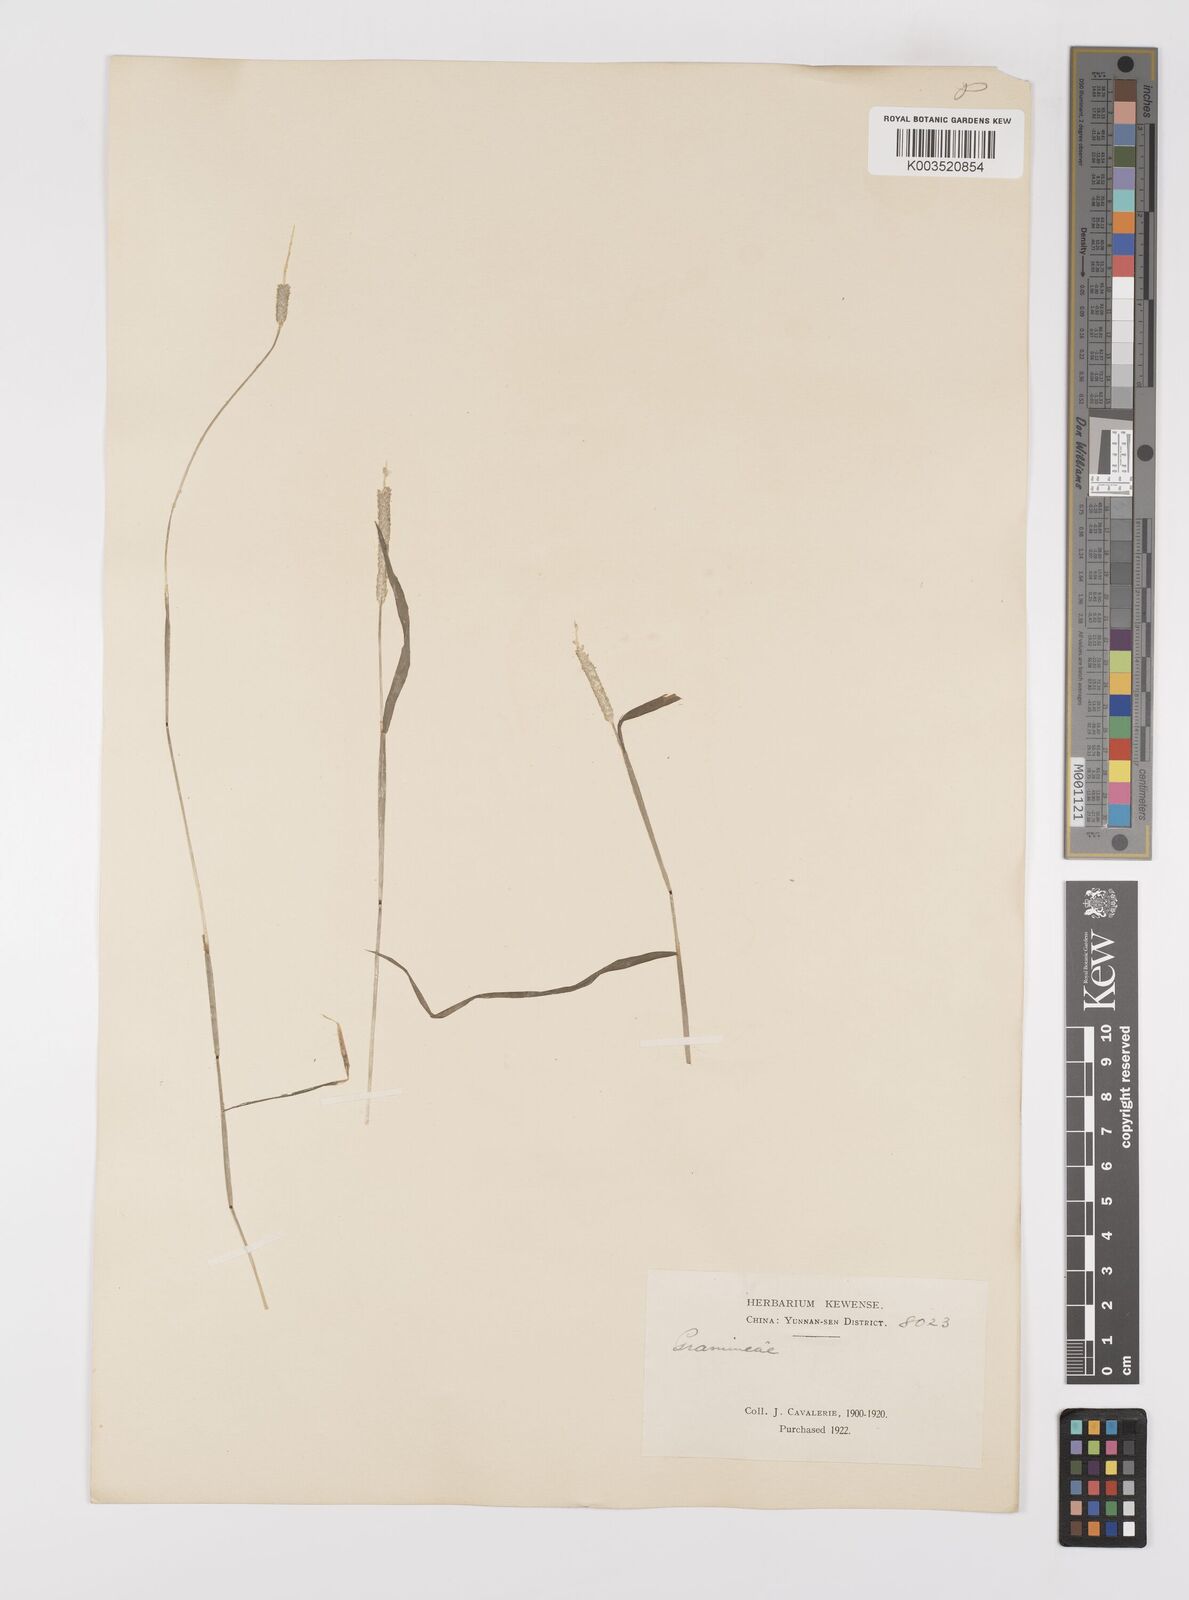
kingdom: Plantae
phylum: Tracheophyta
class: Liliopsida
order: Poales
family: Poaceae
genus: Alopecurus
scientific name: Alopecurus aequalis
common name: Orange foxtail
